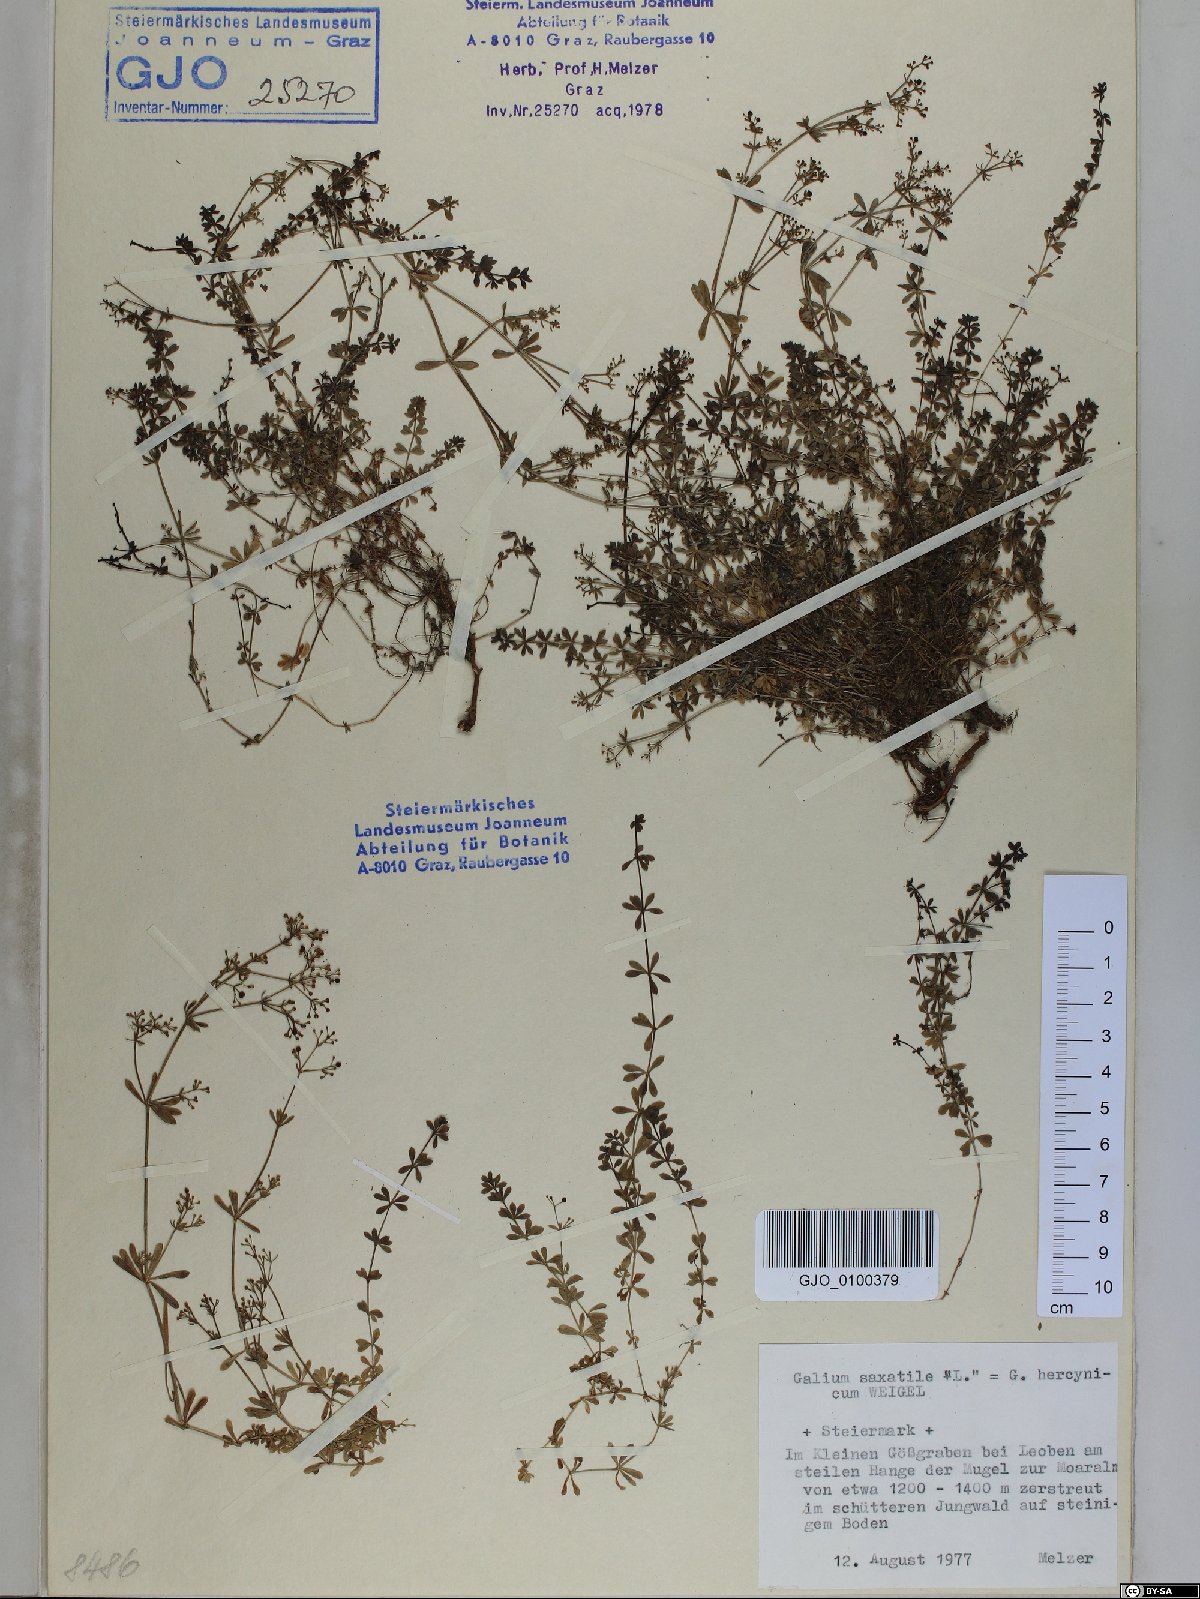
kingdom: Plantae
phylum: Tracheophyta
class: Magnoliopsida
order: Gentianales
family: Rubiaceae
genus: Galium
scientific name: Galium saxatile
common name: Heath bedstraw
